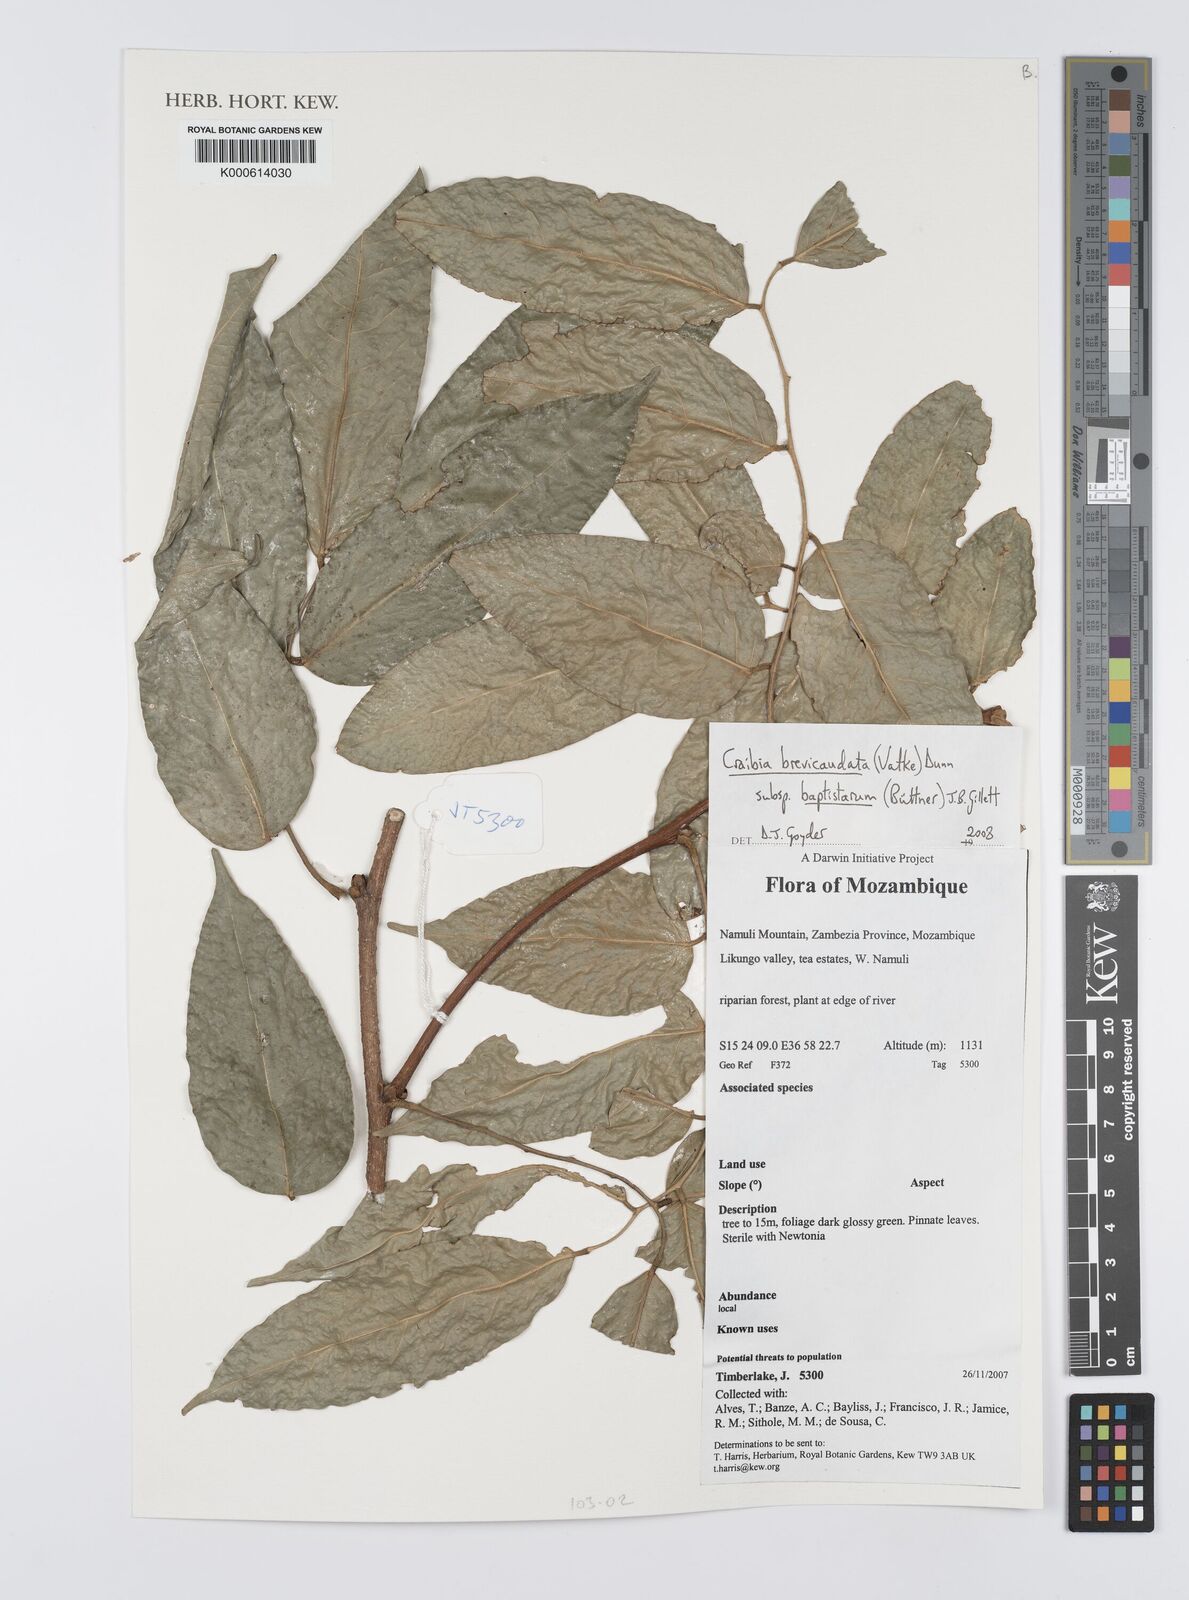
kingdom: Plantae
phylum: Tracheophyta
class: Magnoliopsida
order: Fabales
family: Fabaceae
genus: Craibia
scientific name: Craibia brevicaudata
